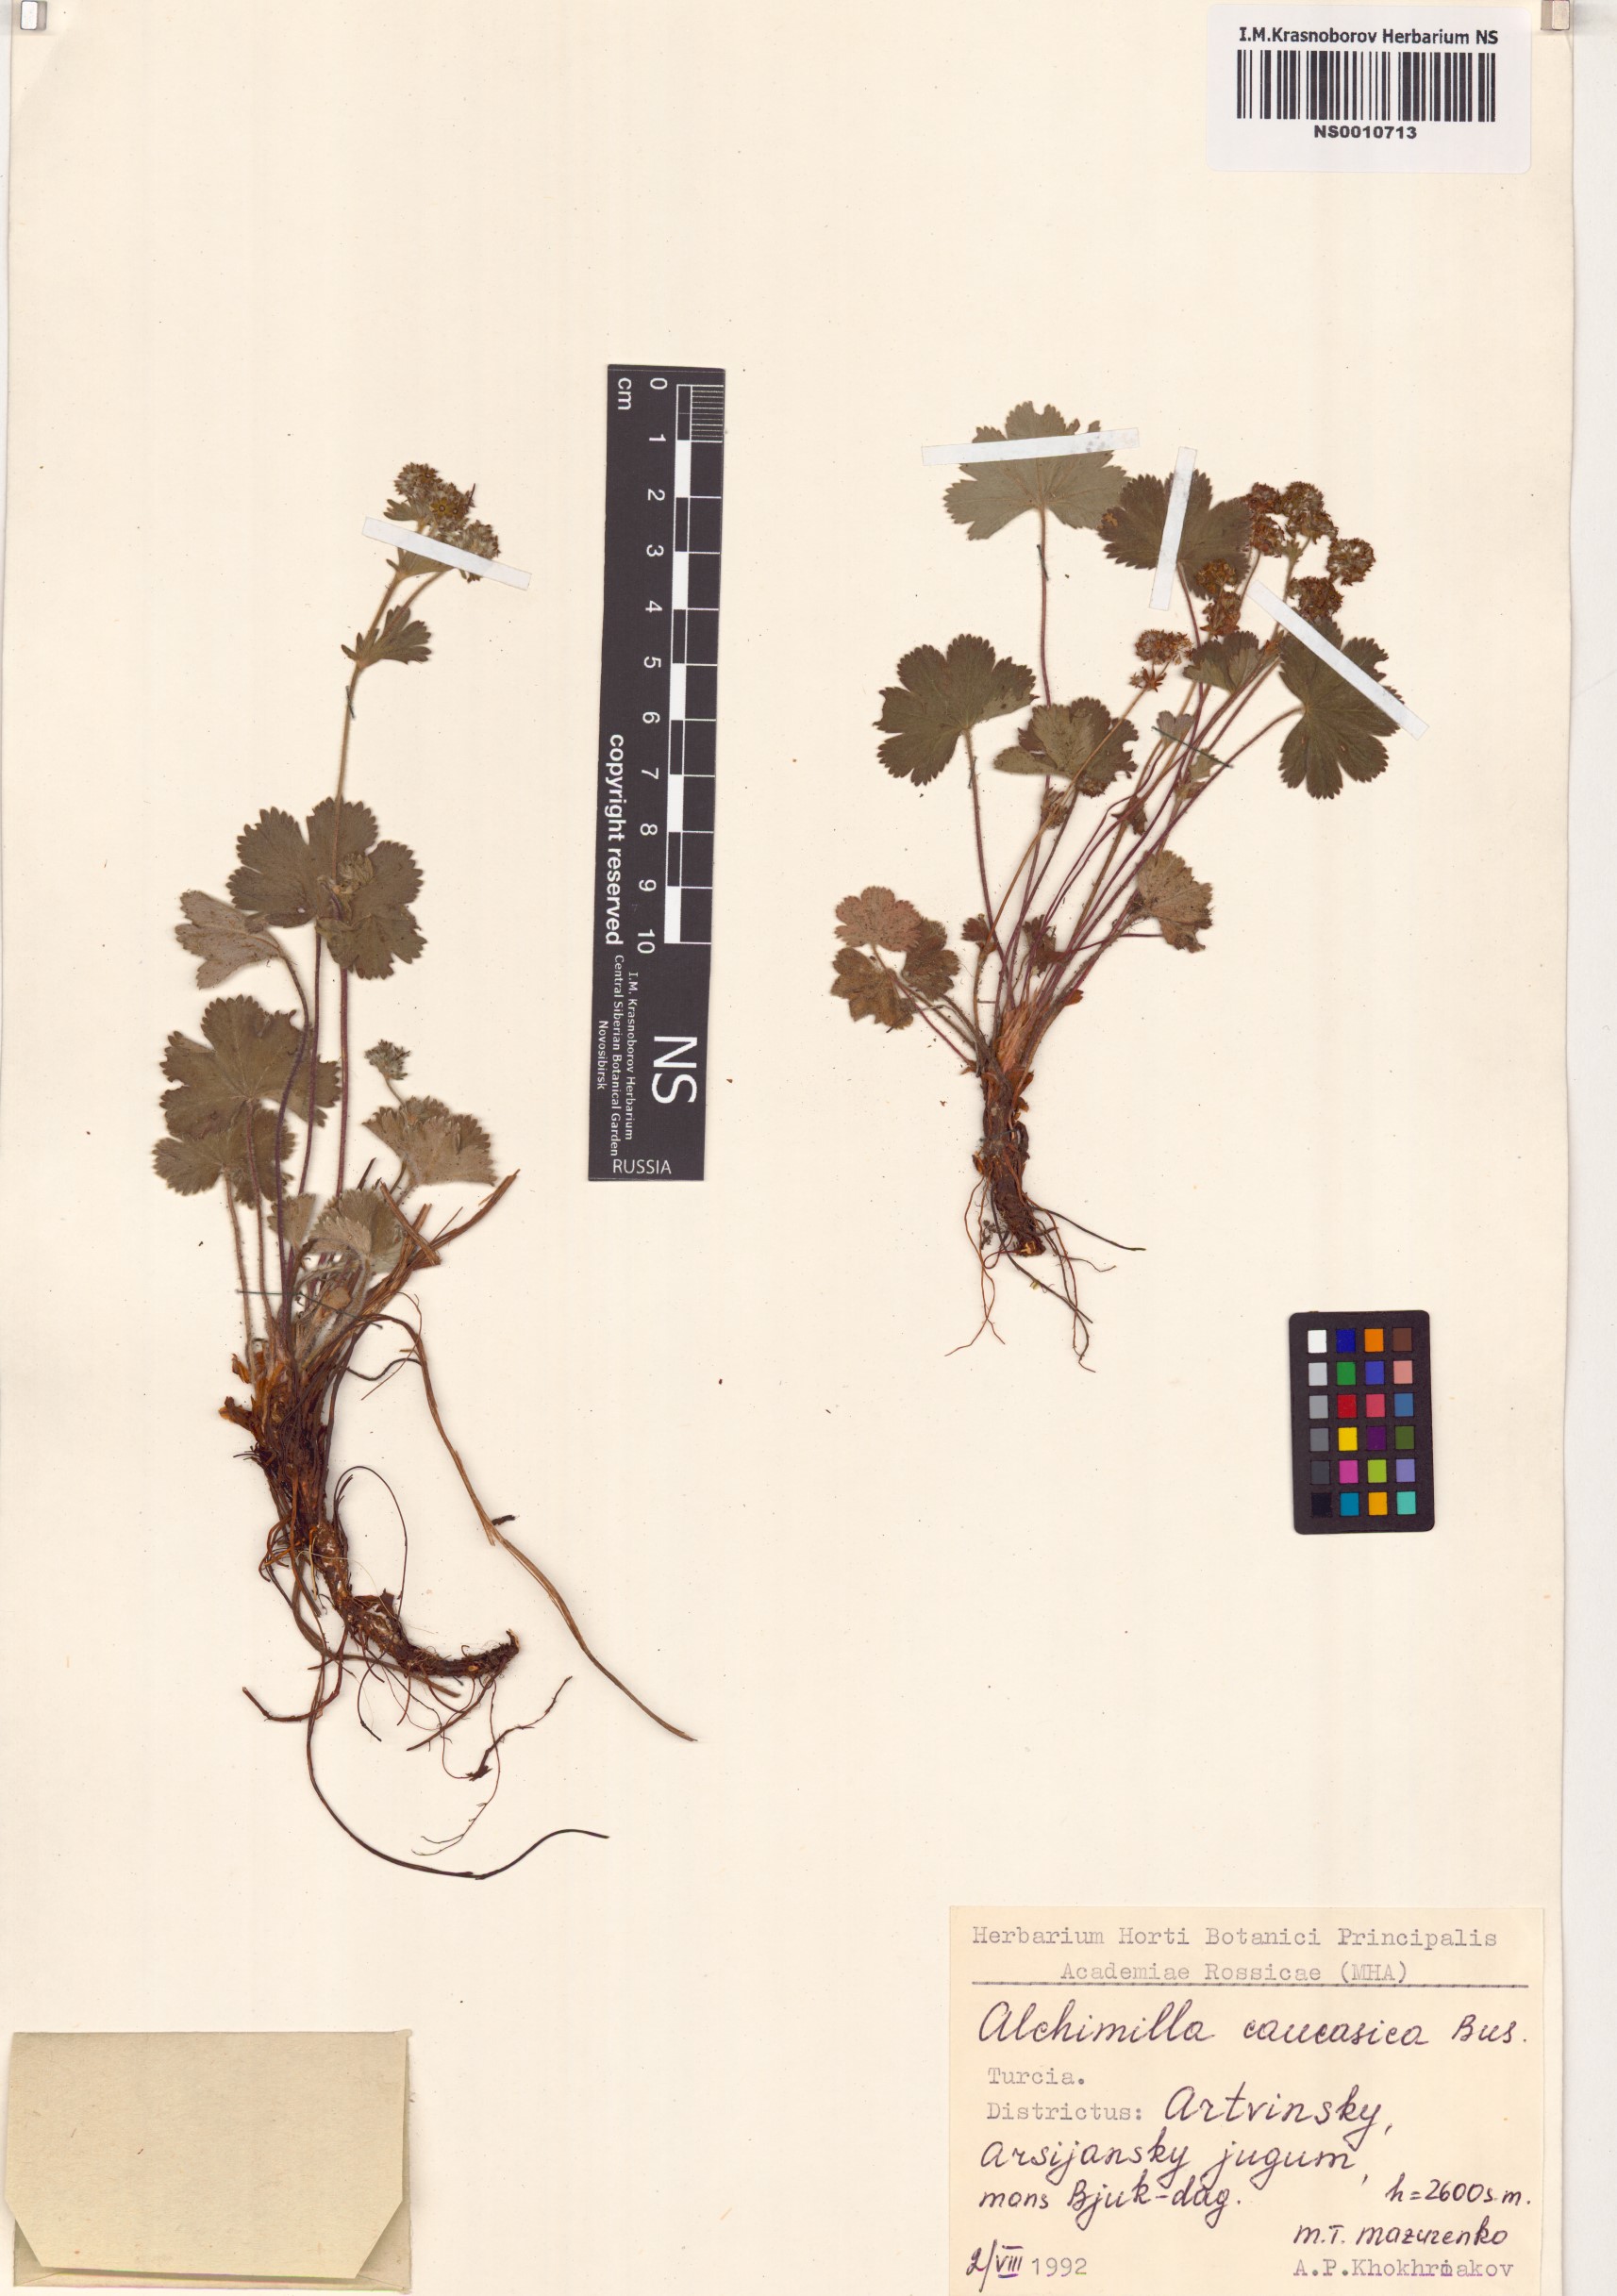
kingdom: Plantae
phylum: Tracheophyta
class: Magnoliopsida
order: Rosales
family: Rosaceae
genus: Alchemilla
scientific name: Alchemilla caucasica
